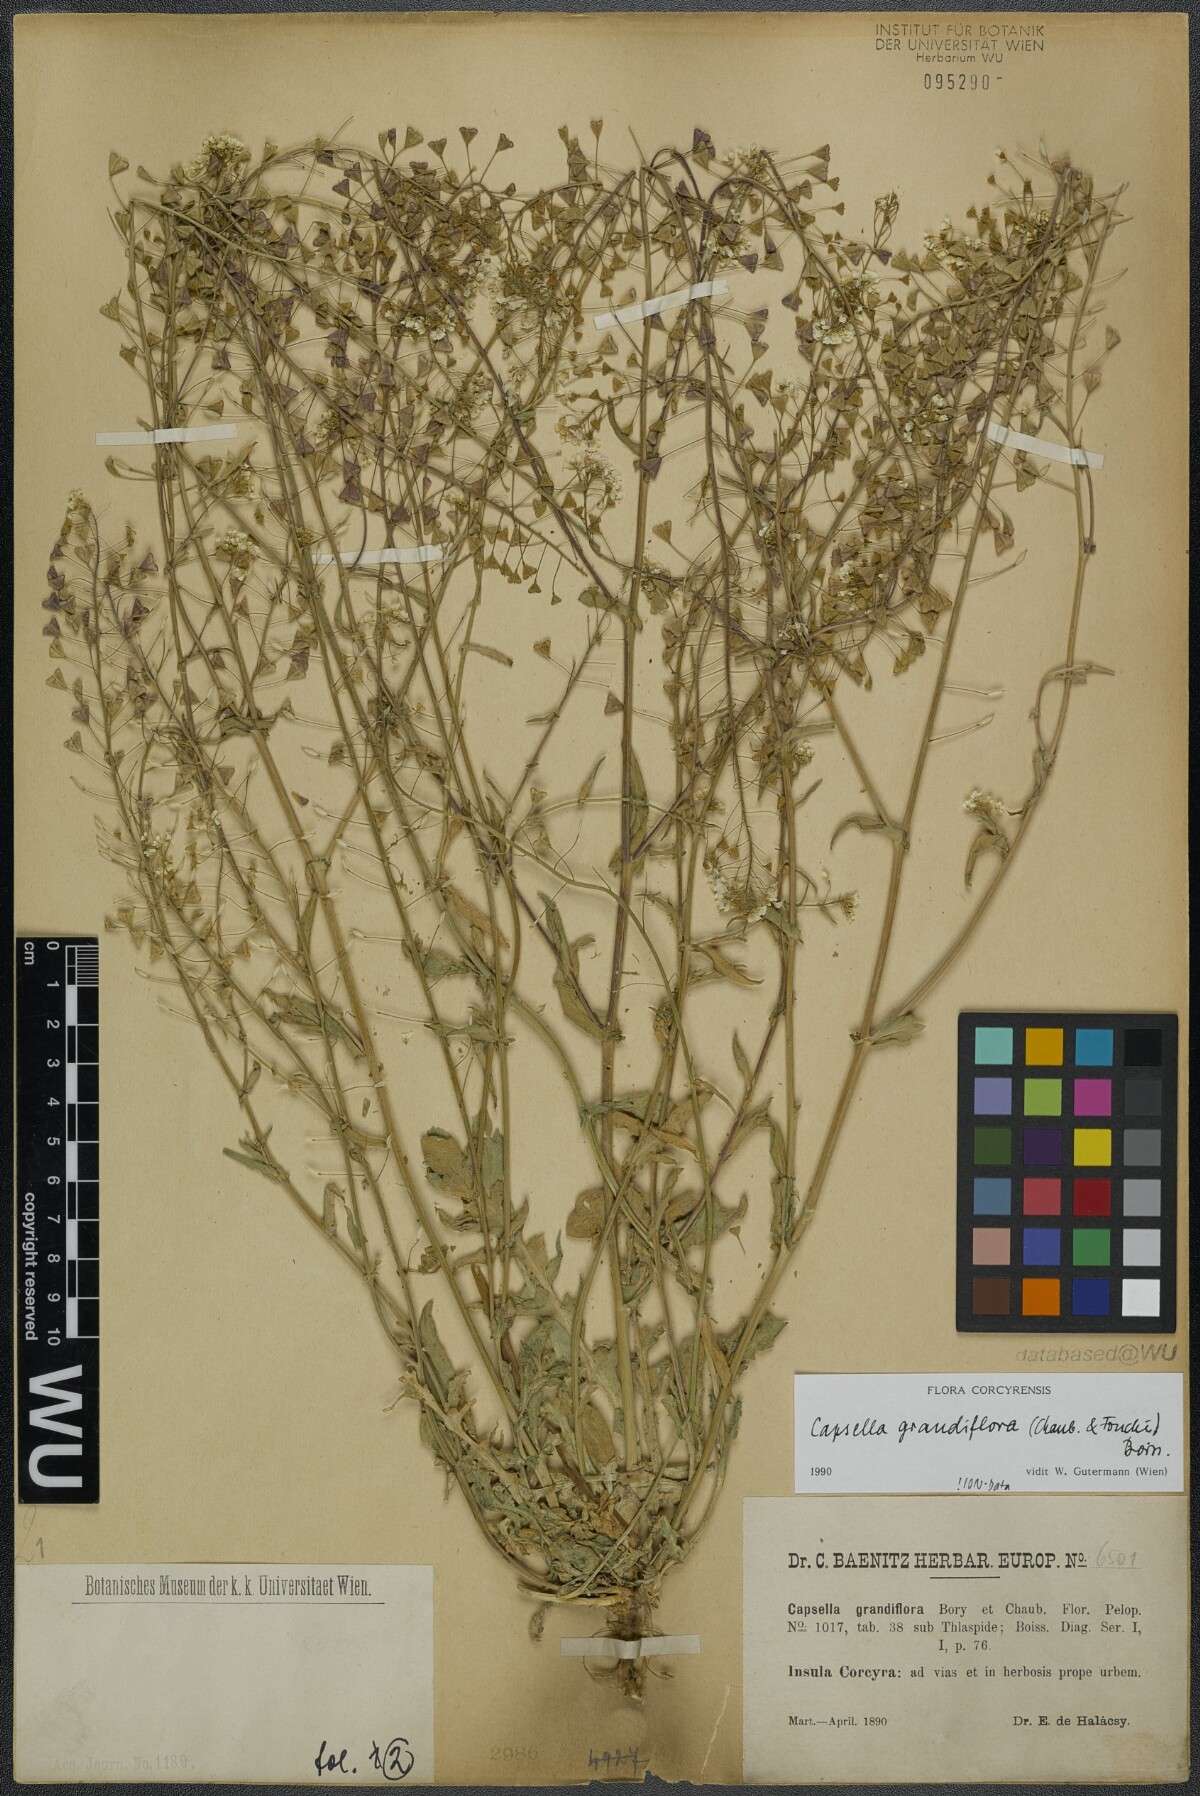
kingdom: Plantae
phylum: Tracheophyta
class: Magnoliopsida
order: Brassicales
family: Brassicaceae
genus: Capsella
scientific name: Capsella grandiflora
